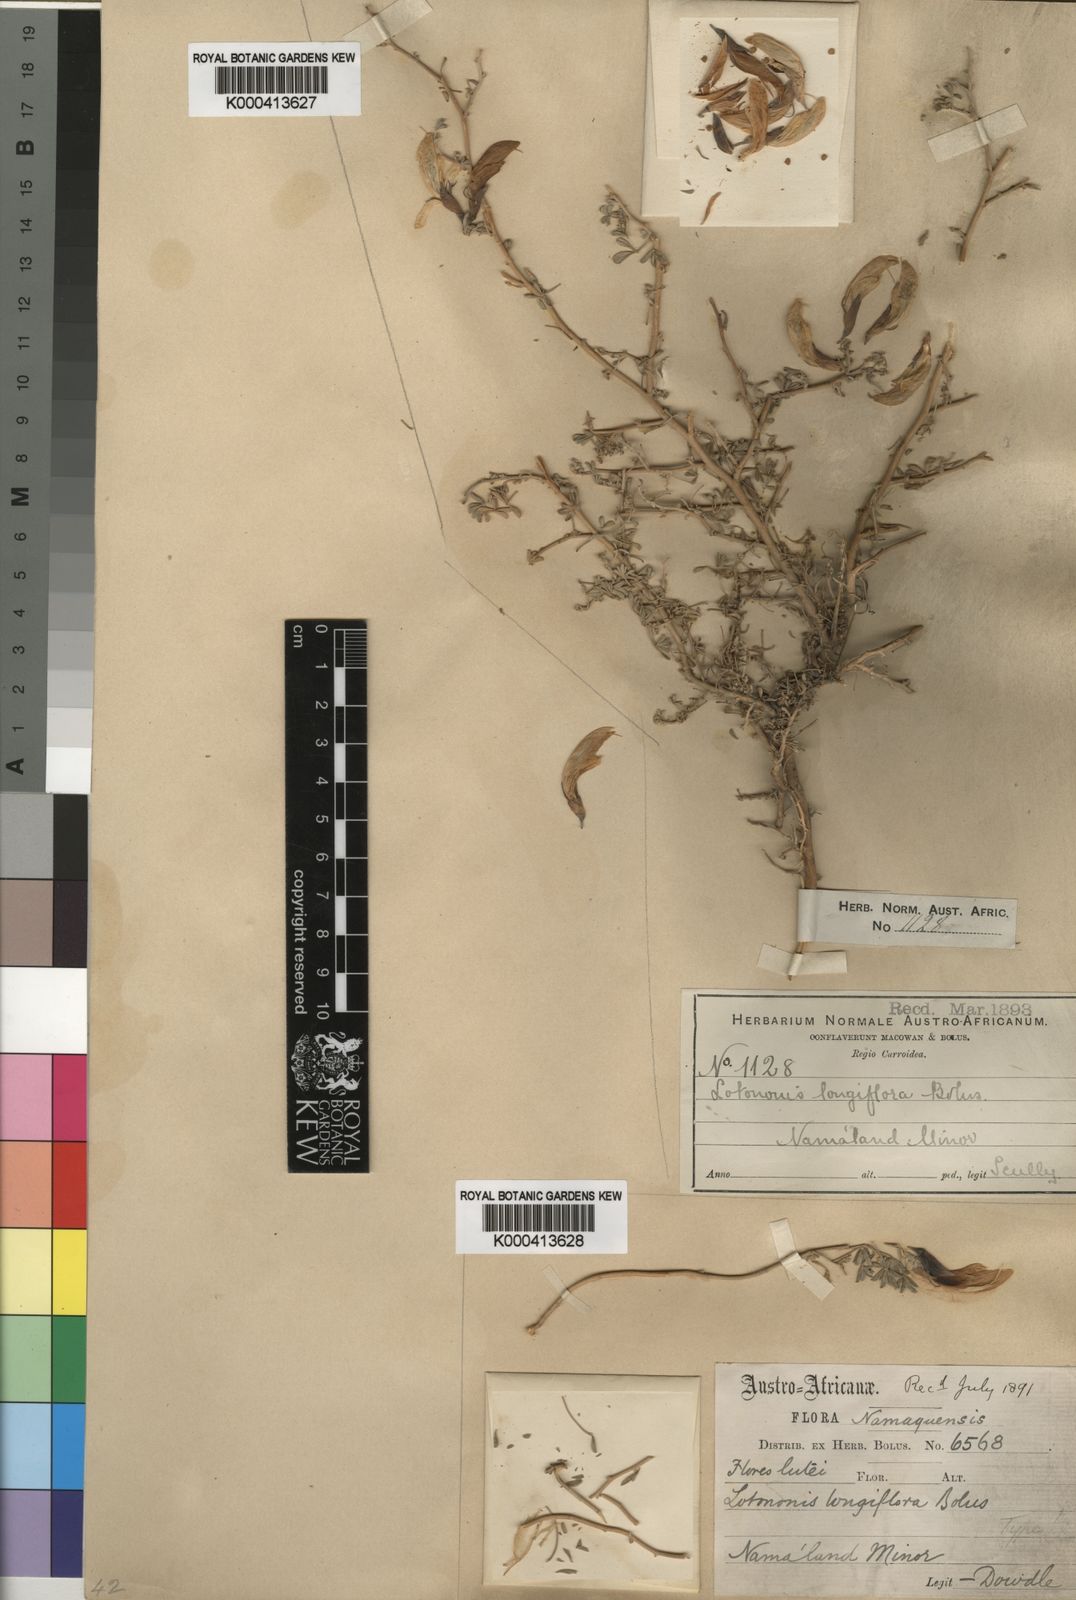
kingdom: Plantae
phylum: Tracheophyta
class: Magnoliopsida
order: Fabales
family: Fabaceae
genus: Leobordea
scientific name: Leobordea longiflora
